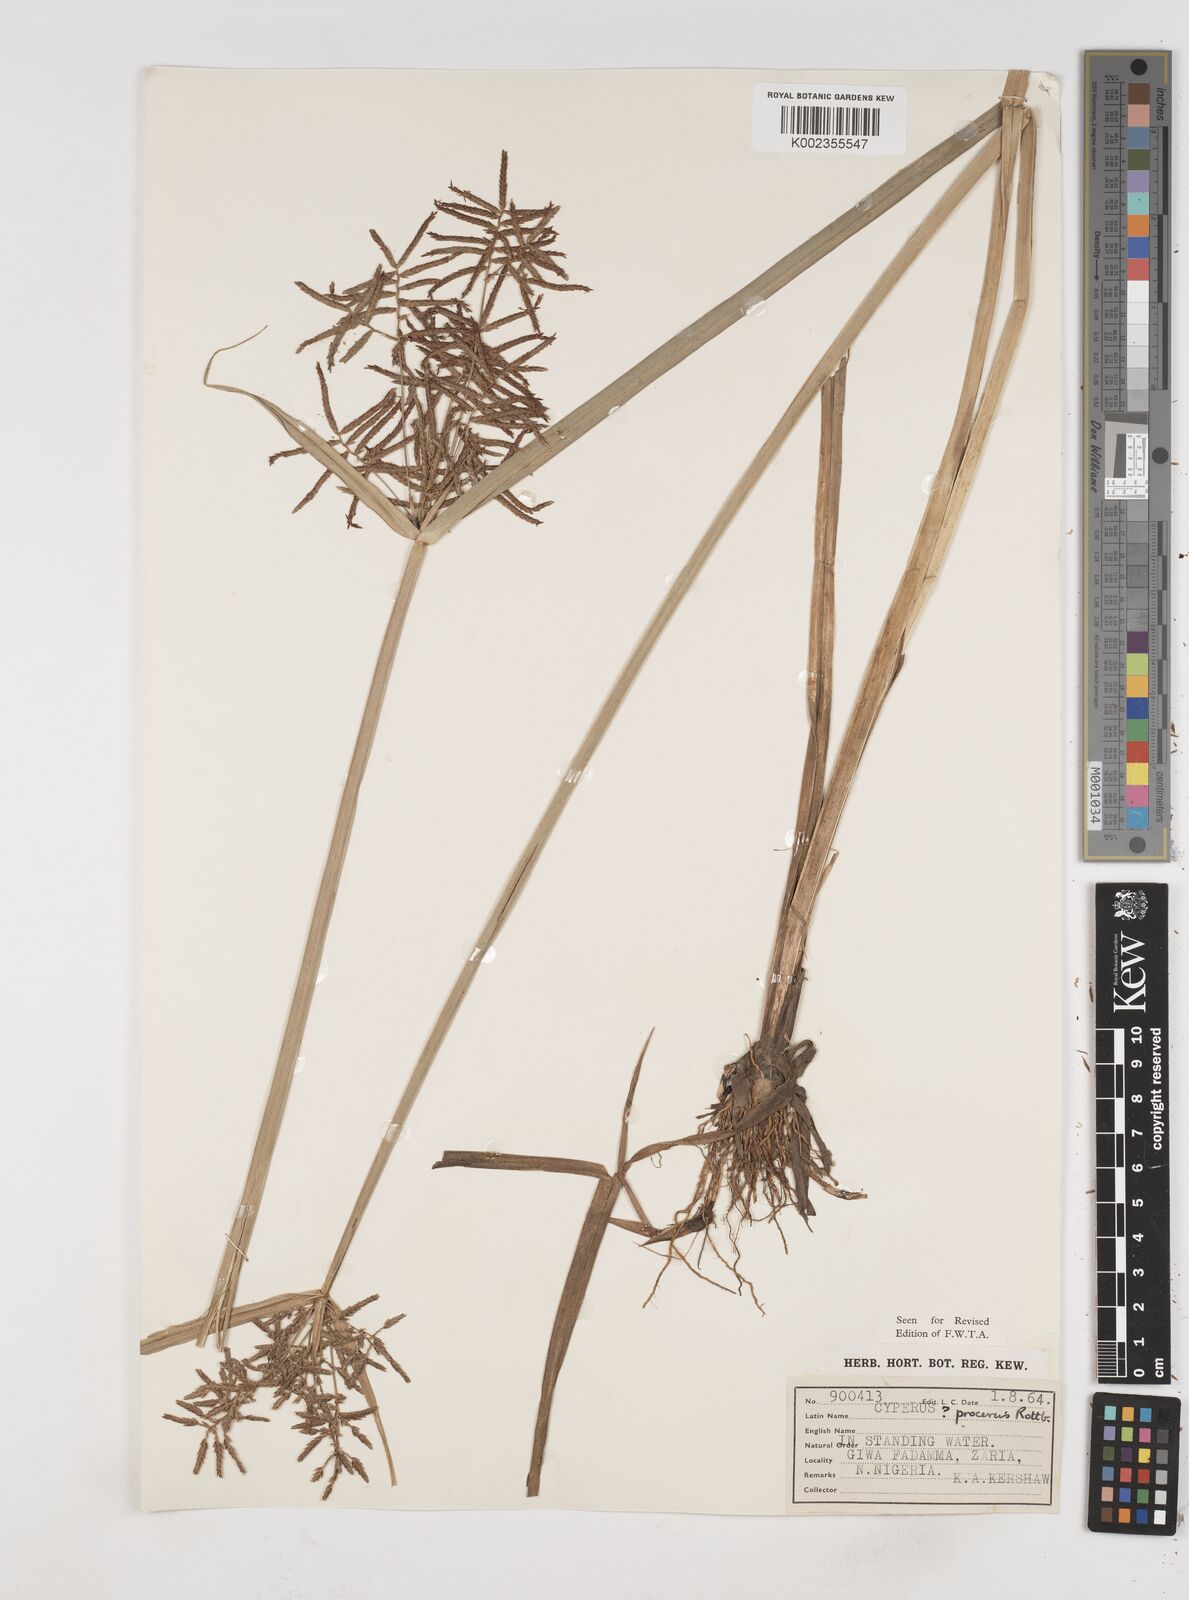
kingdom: Plantae
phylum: Tracheophyta
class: Liliopsida
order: Poales
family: Cyperaceae
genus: Cyperus
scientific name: Cyperus procerus
